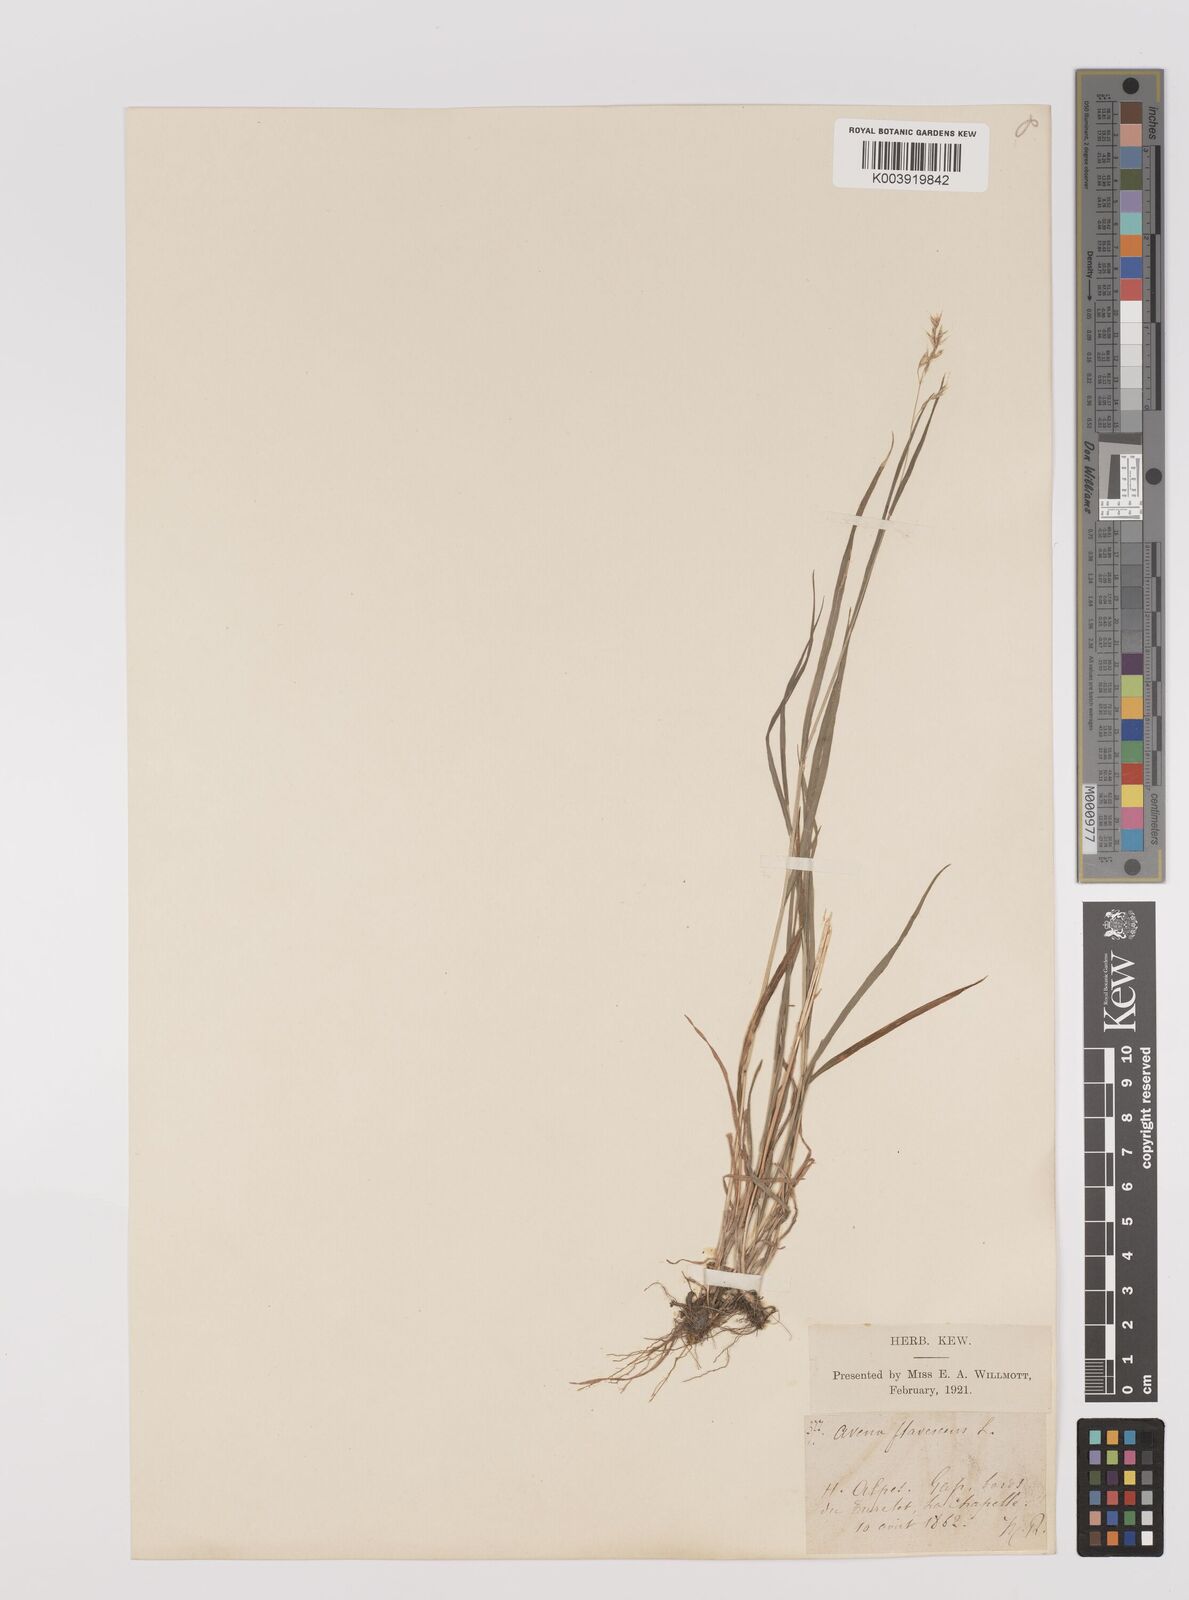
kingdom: Plantae
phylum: Tracheophyta
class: Liliopsida
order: Poales
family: Poaceae
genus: Trisetum
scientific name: Trisetum flavescens
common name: Yellow oat-grass
